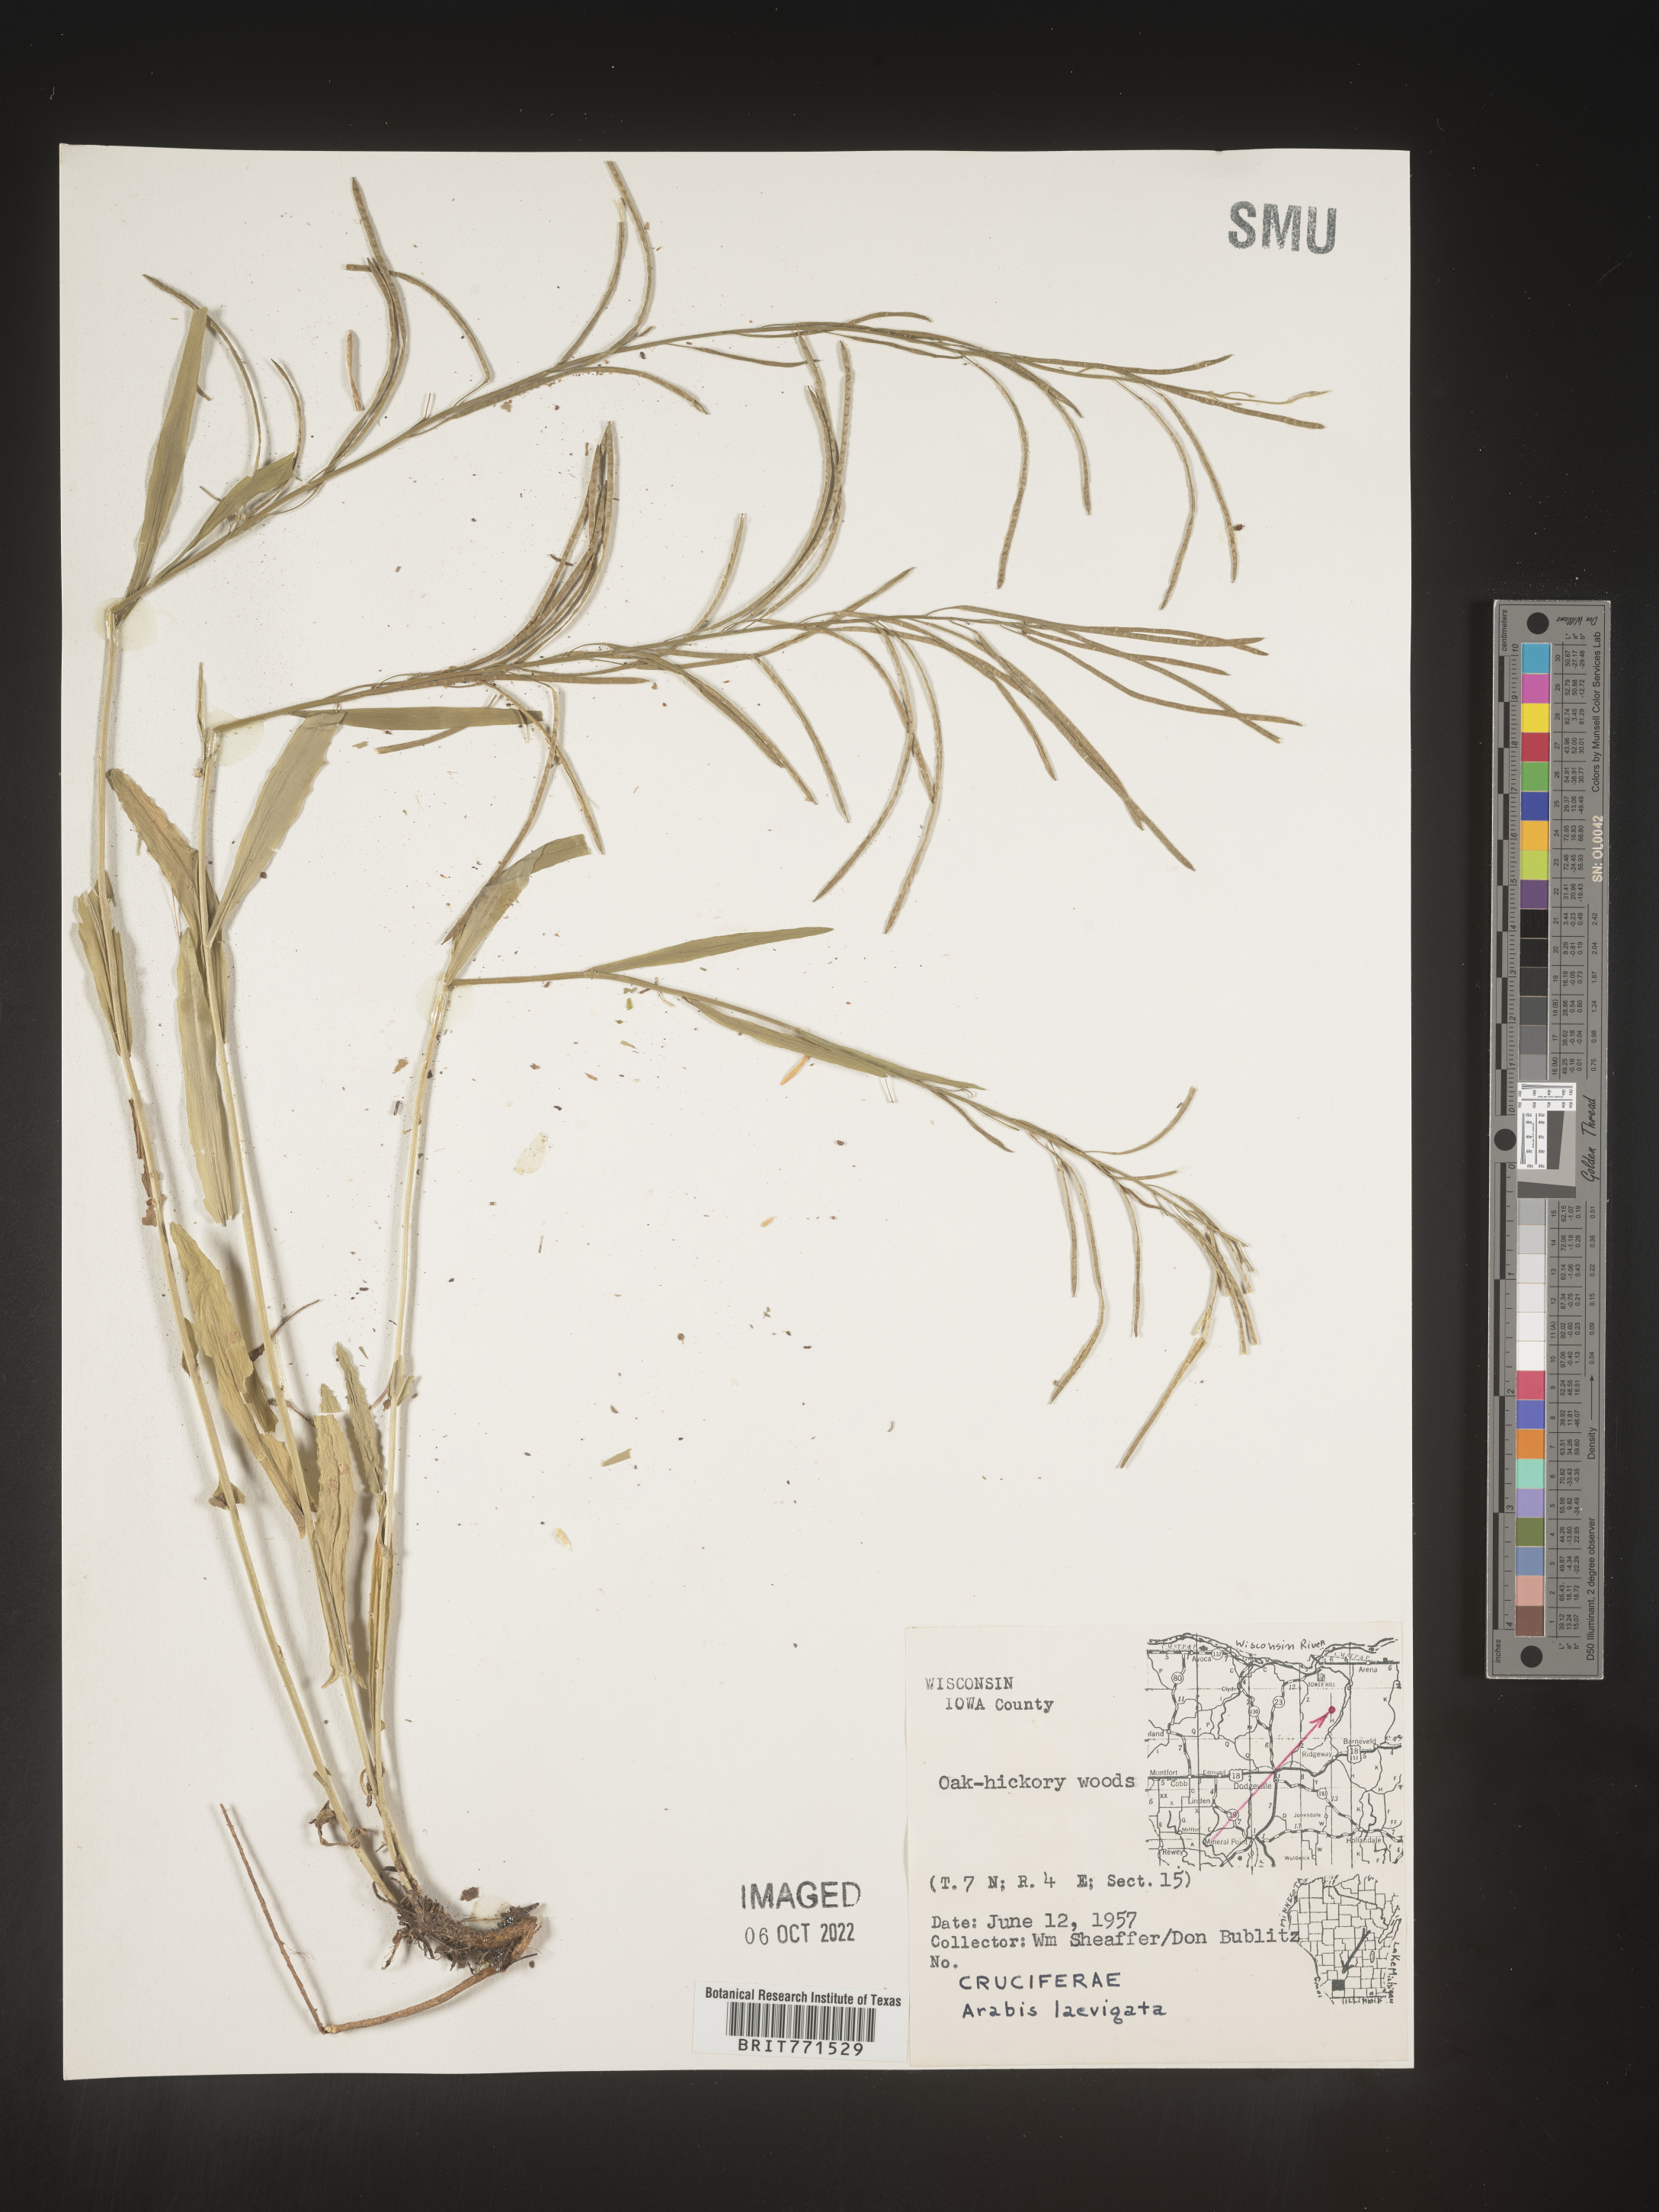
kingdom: Plantae
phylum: Tracheophyta
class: Magnoliopsida
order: Brassicales
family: Brassicaceae
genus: Arabis
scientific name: Arabis laevigata
